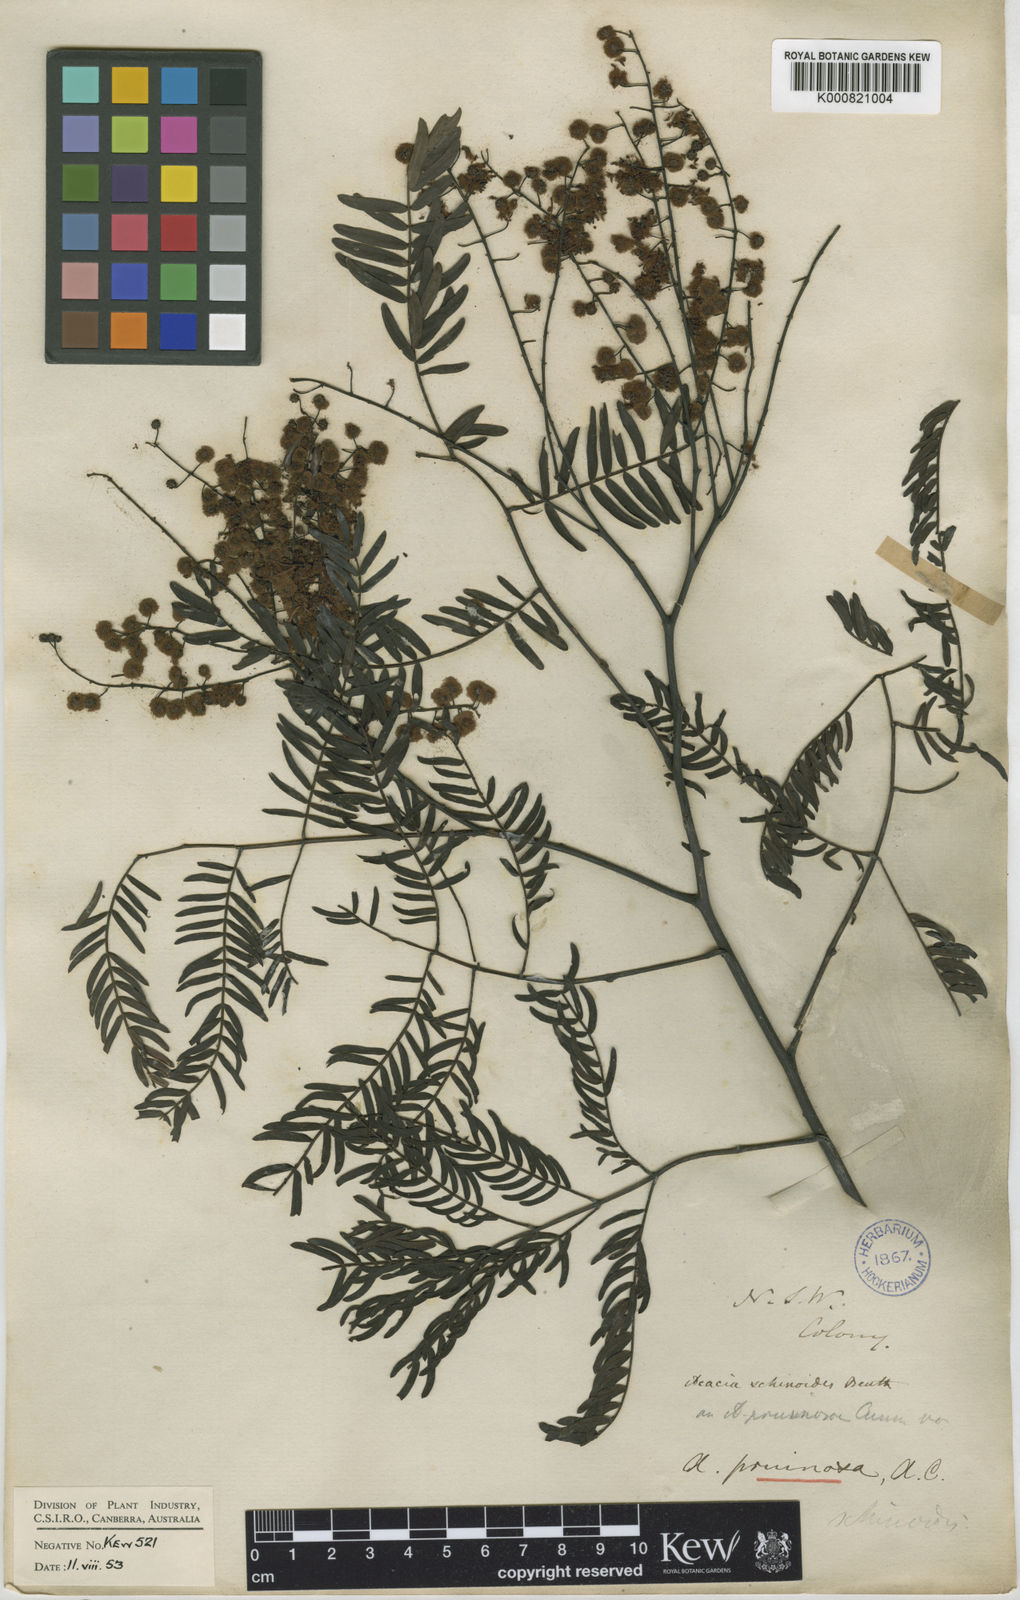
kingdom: Plantae
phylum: Tracheophyta
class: Magnoliopsida
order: Fabales
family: Fabaceae
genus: Acacia
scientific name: Acacia schinoides
